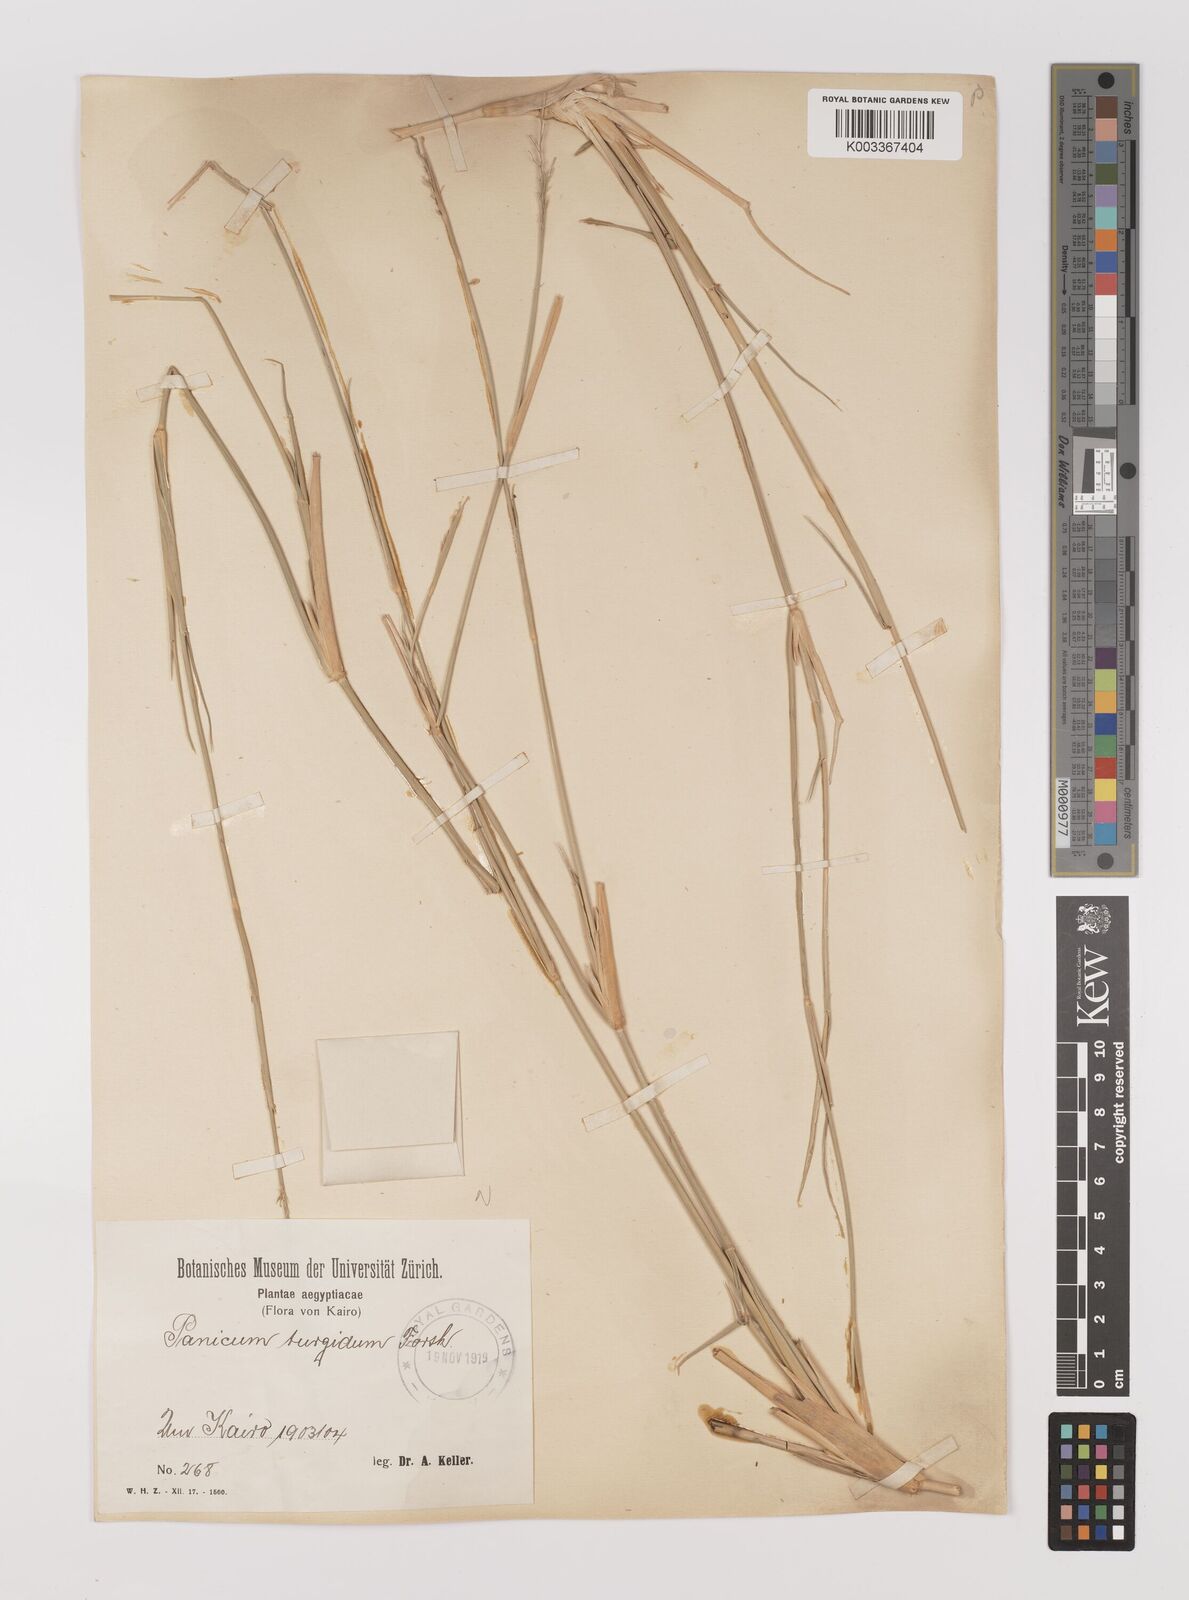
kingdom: Plantae
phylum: Tracheophyta
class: Liliopsida
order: Poales
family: Poaceae
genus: Panicum
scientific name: Panicum turgidum
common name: Desert grass
